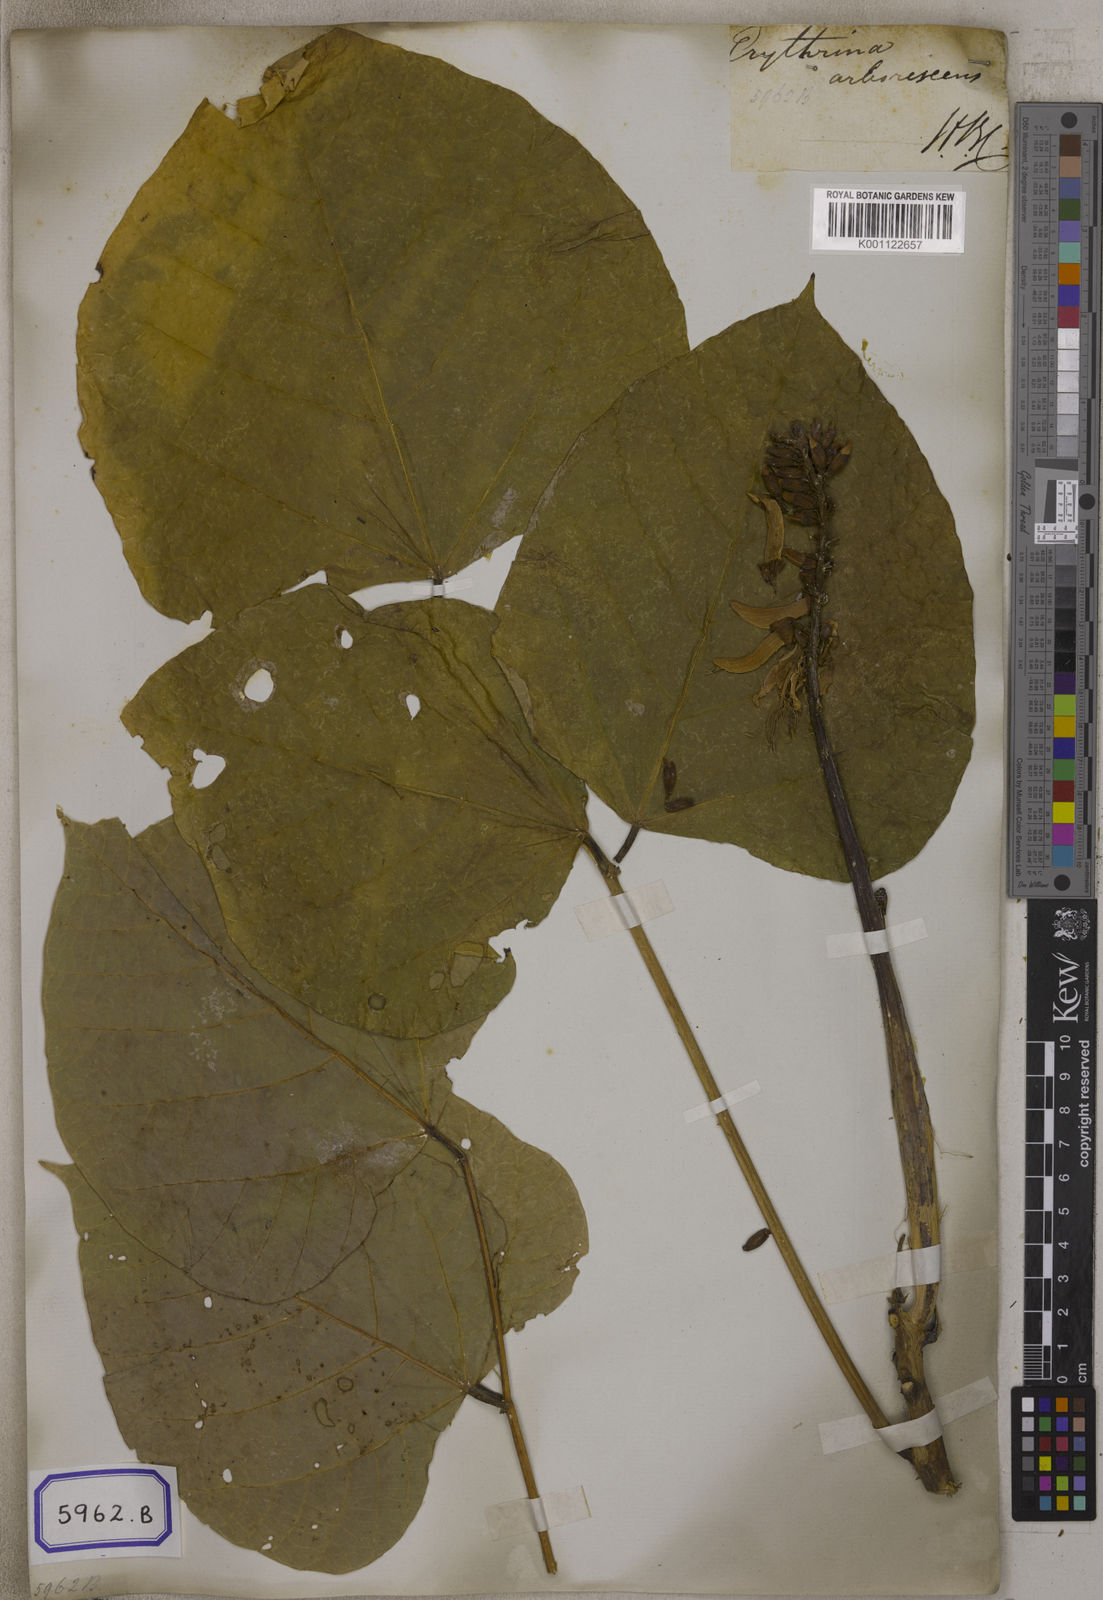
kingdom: Plantae
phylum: Tracheophyta
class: Magnoliopsida
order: Fabales
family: Fabaceae
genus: Erythrina
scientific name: Erythrina arborescens
